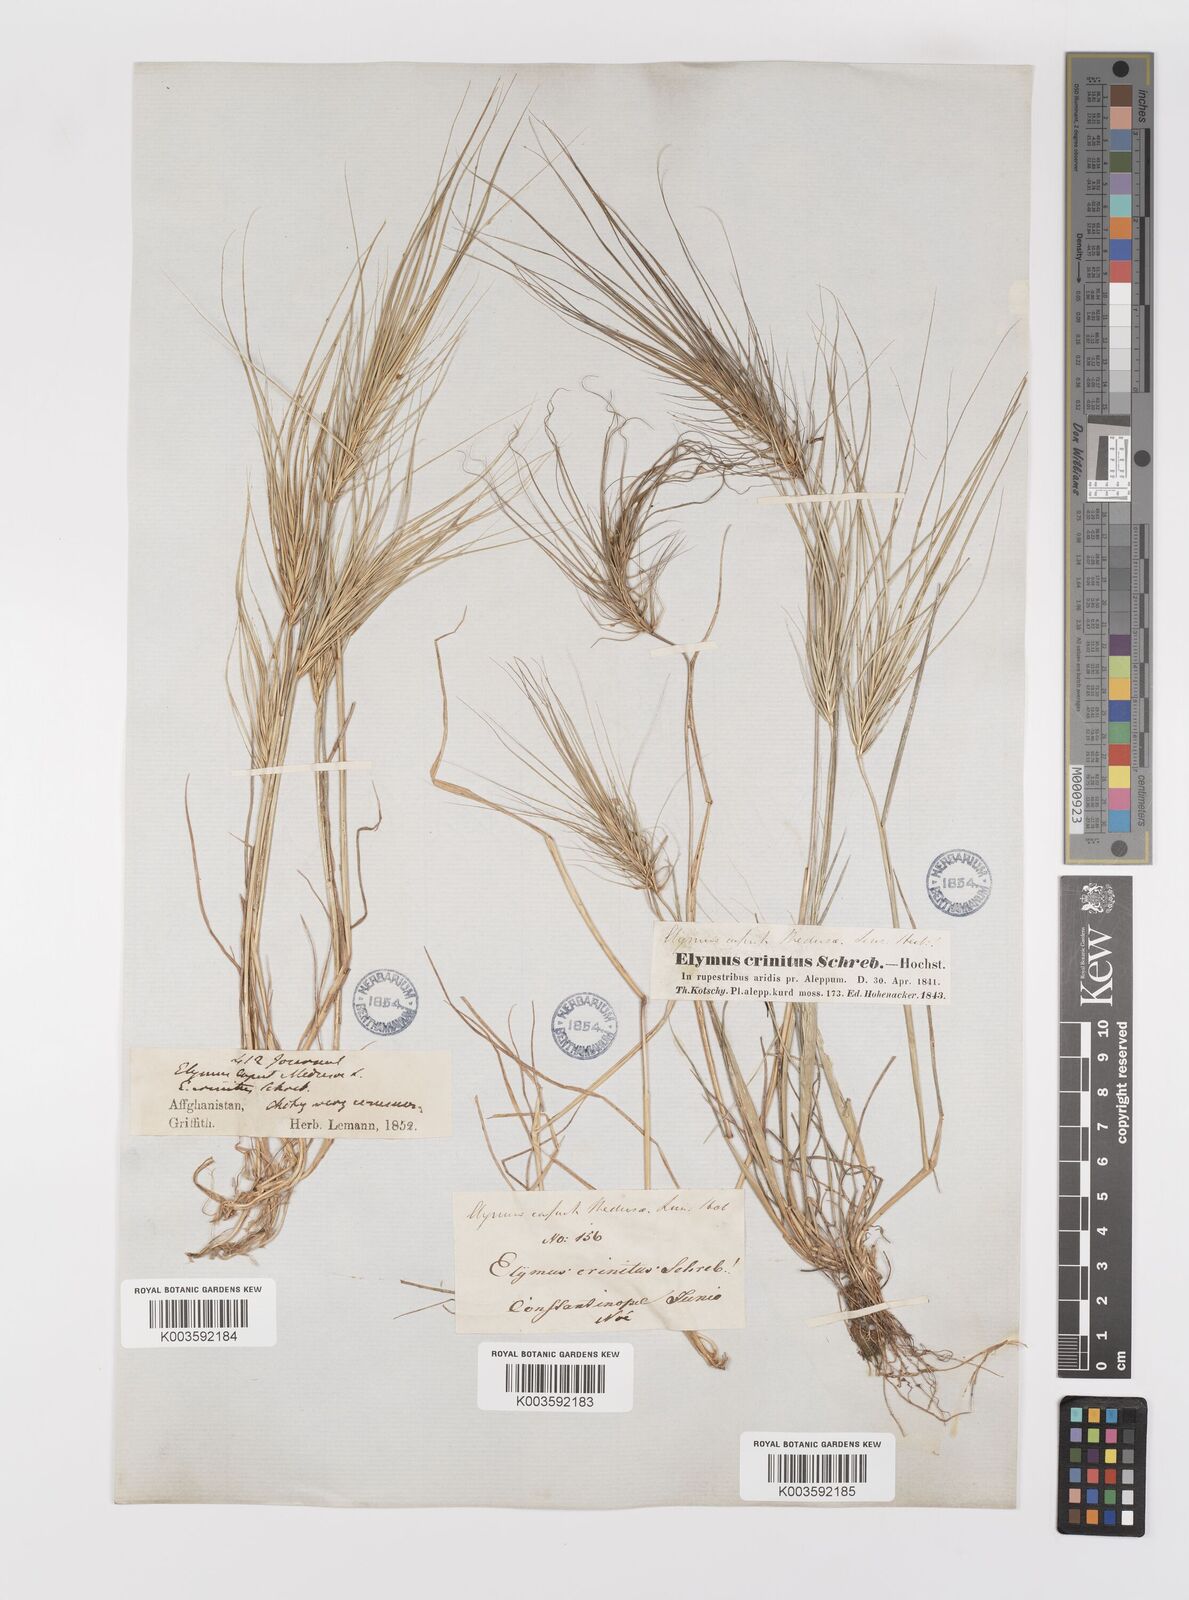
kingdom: Plantae
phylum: Tracheophyta
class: Liliopsida
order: Poales
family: Poaceae
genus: Taeniatherum
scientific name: Taeniatherum caput-medusae
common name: Medusahead
